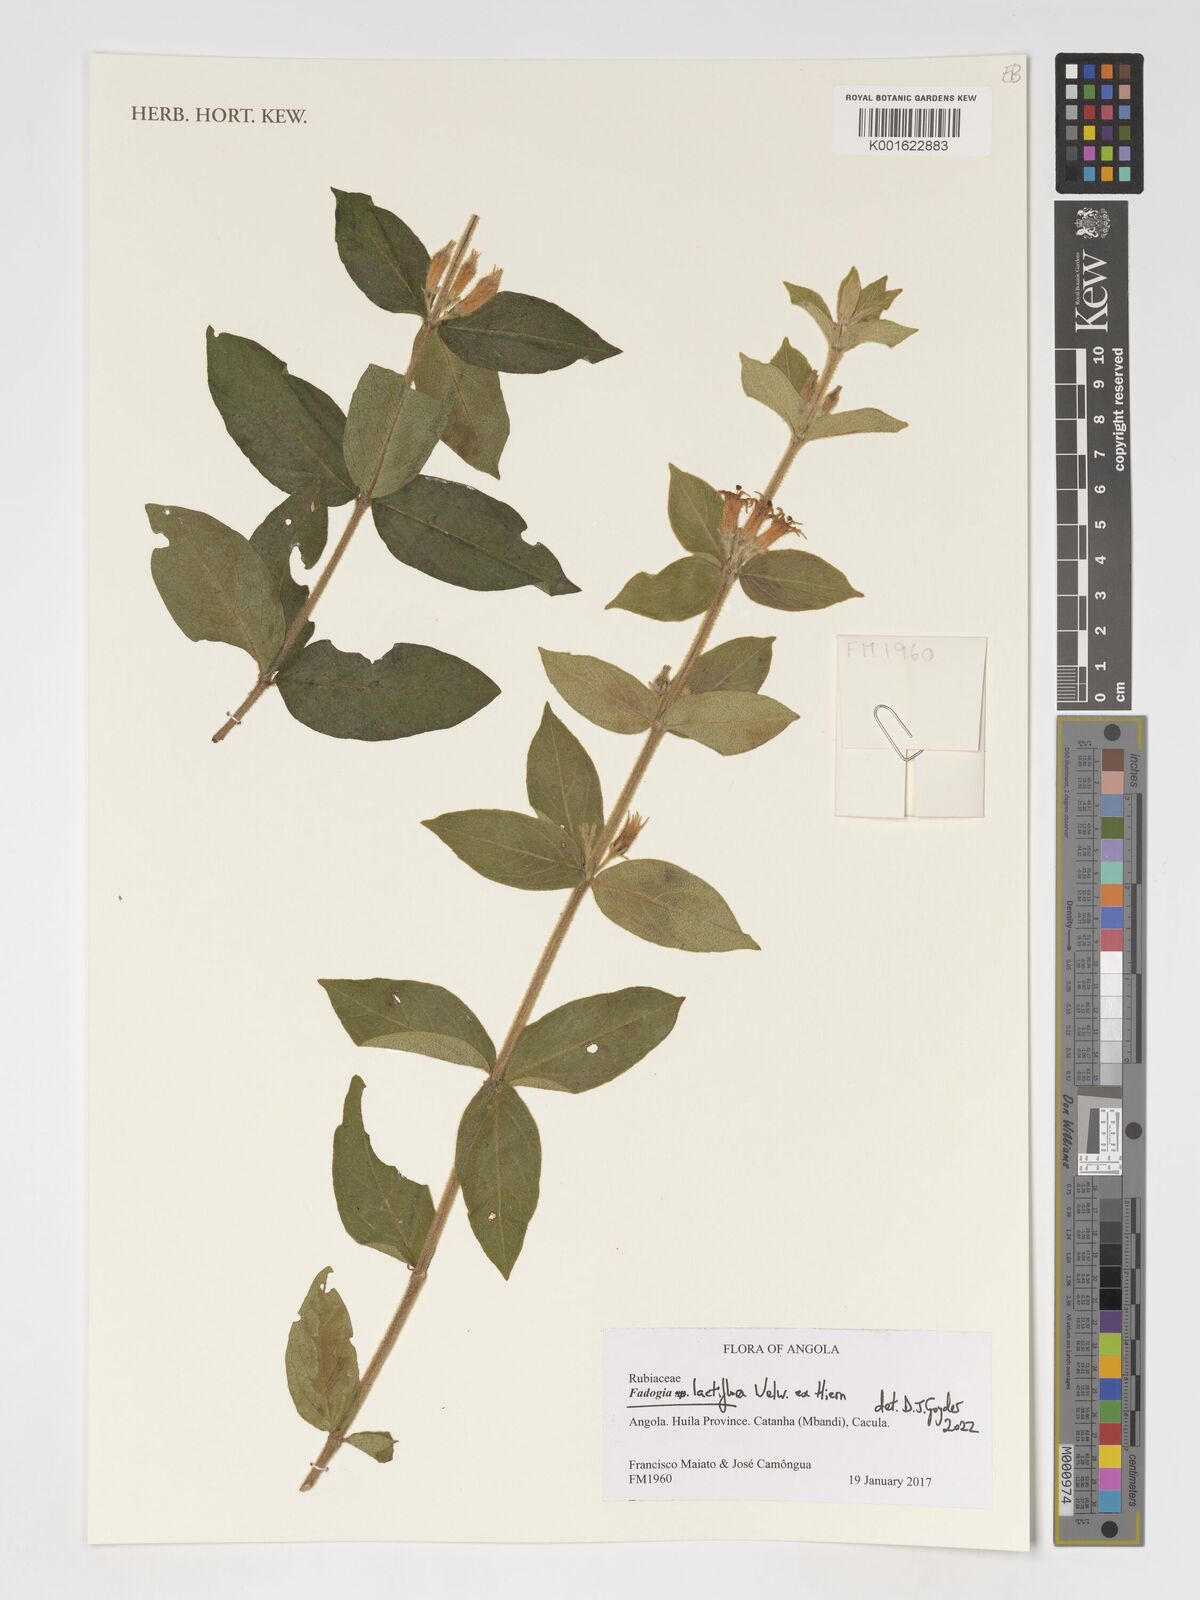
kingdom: Plantae
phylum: Tracheophyta
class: Magnoliopsida
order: Gentianales
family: Rubiaceae
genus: Fadogia
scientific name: Fadogia lactiflora
